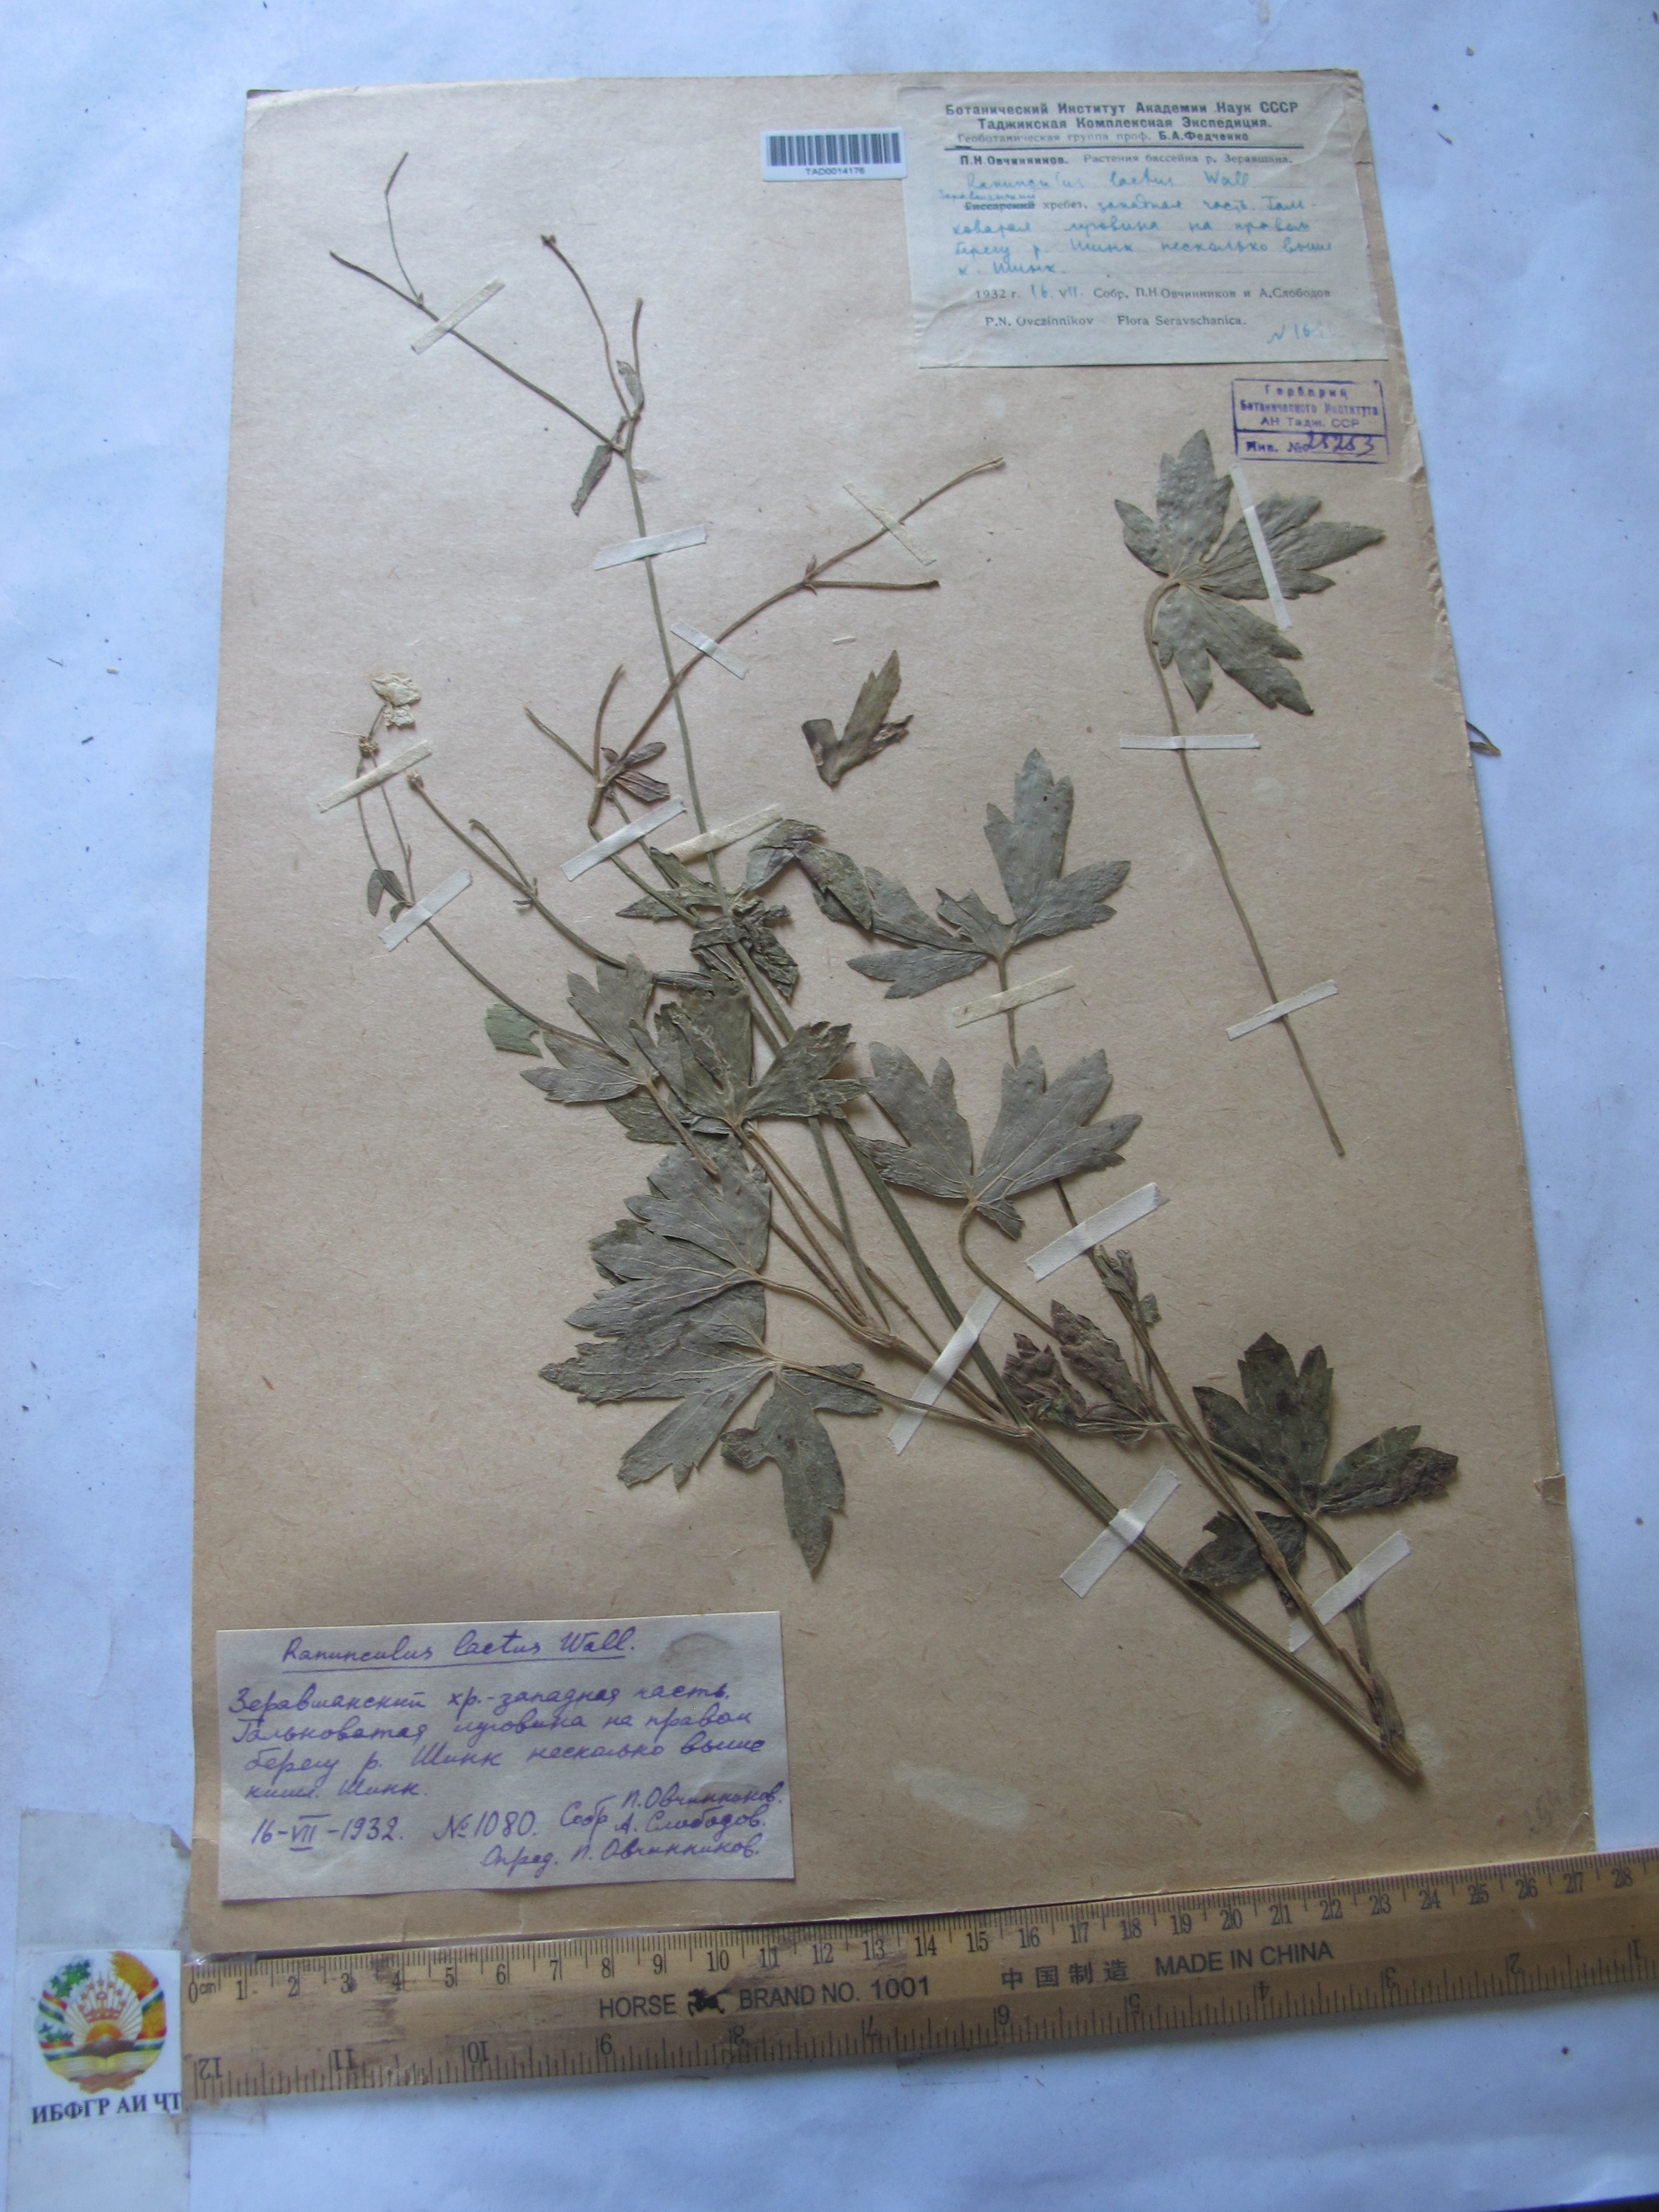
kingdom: Plantae
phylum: Tracheophyta
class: Magnoliopsida
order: Ranunculales
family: Ranunculaceae
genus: Ranunculus
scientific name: Ranunculus distans
